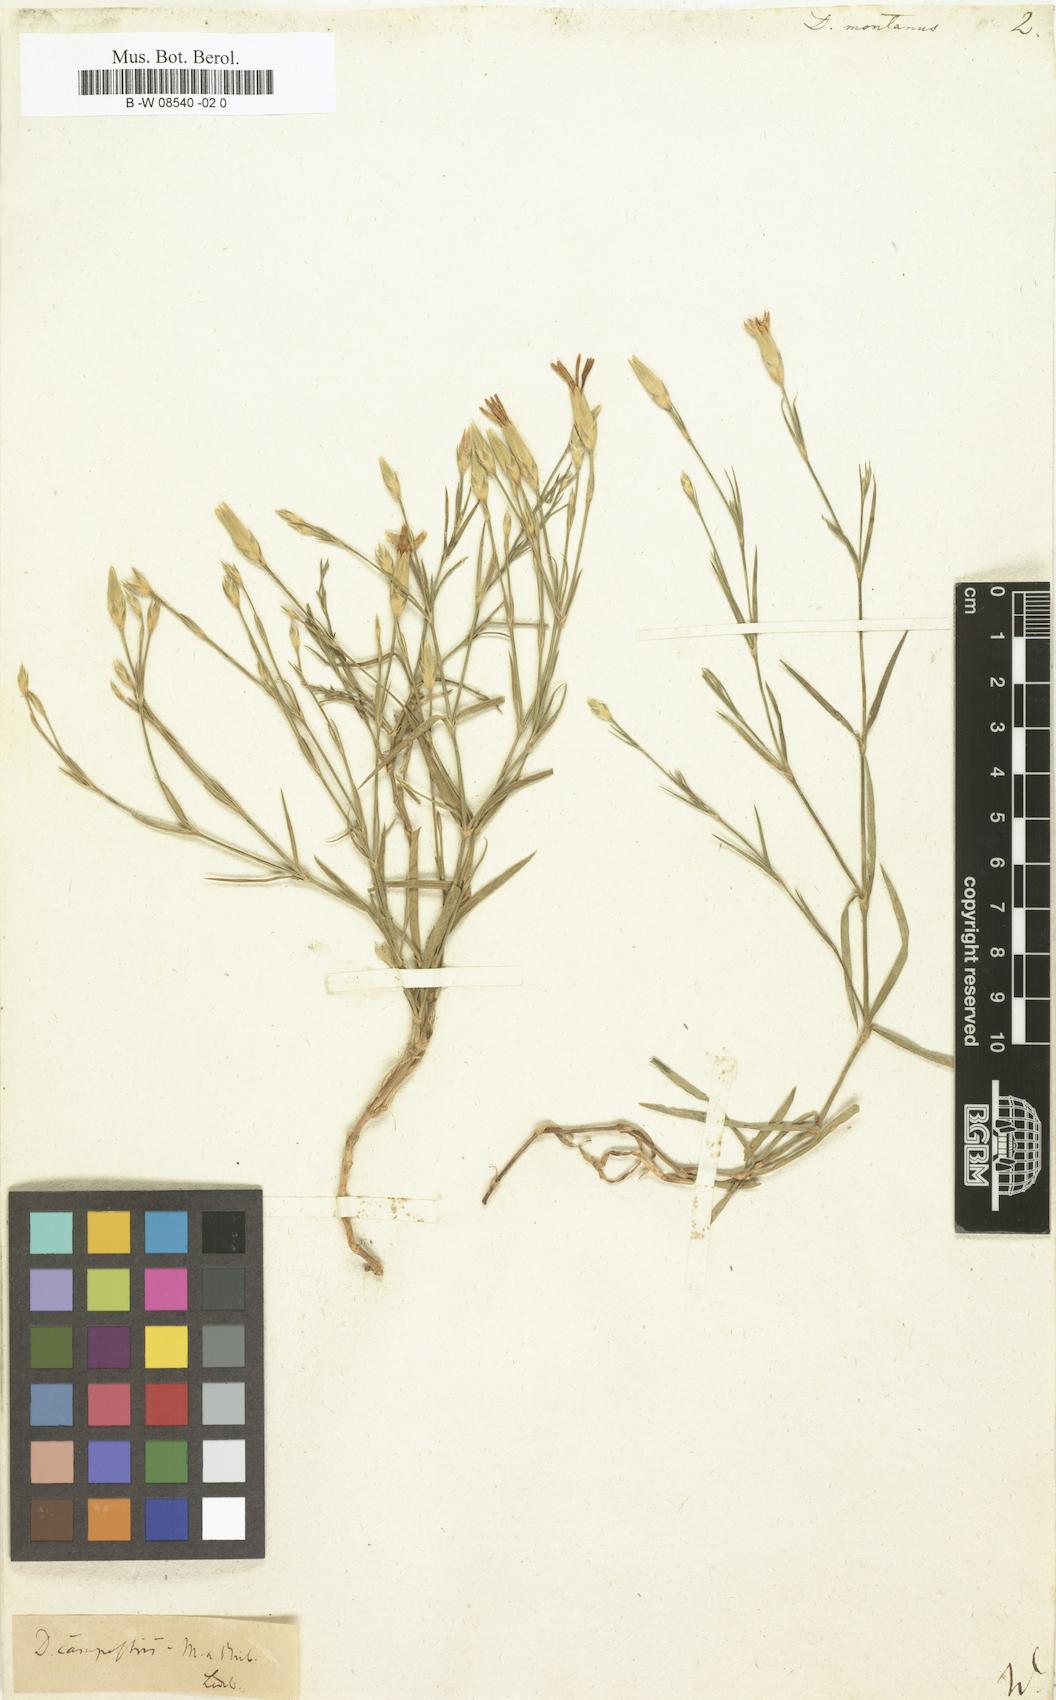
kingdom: Plantae
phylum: Tracheophyta
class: Magnoliopsida
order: Caryophyllales
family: Caryophyllaceae
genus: Dianthus
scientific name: Dianthus
